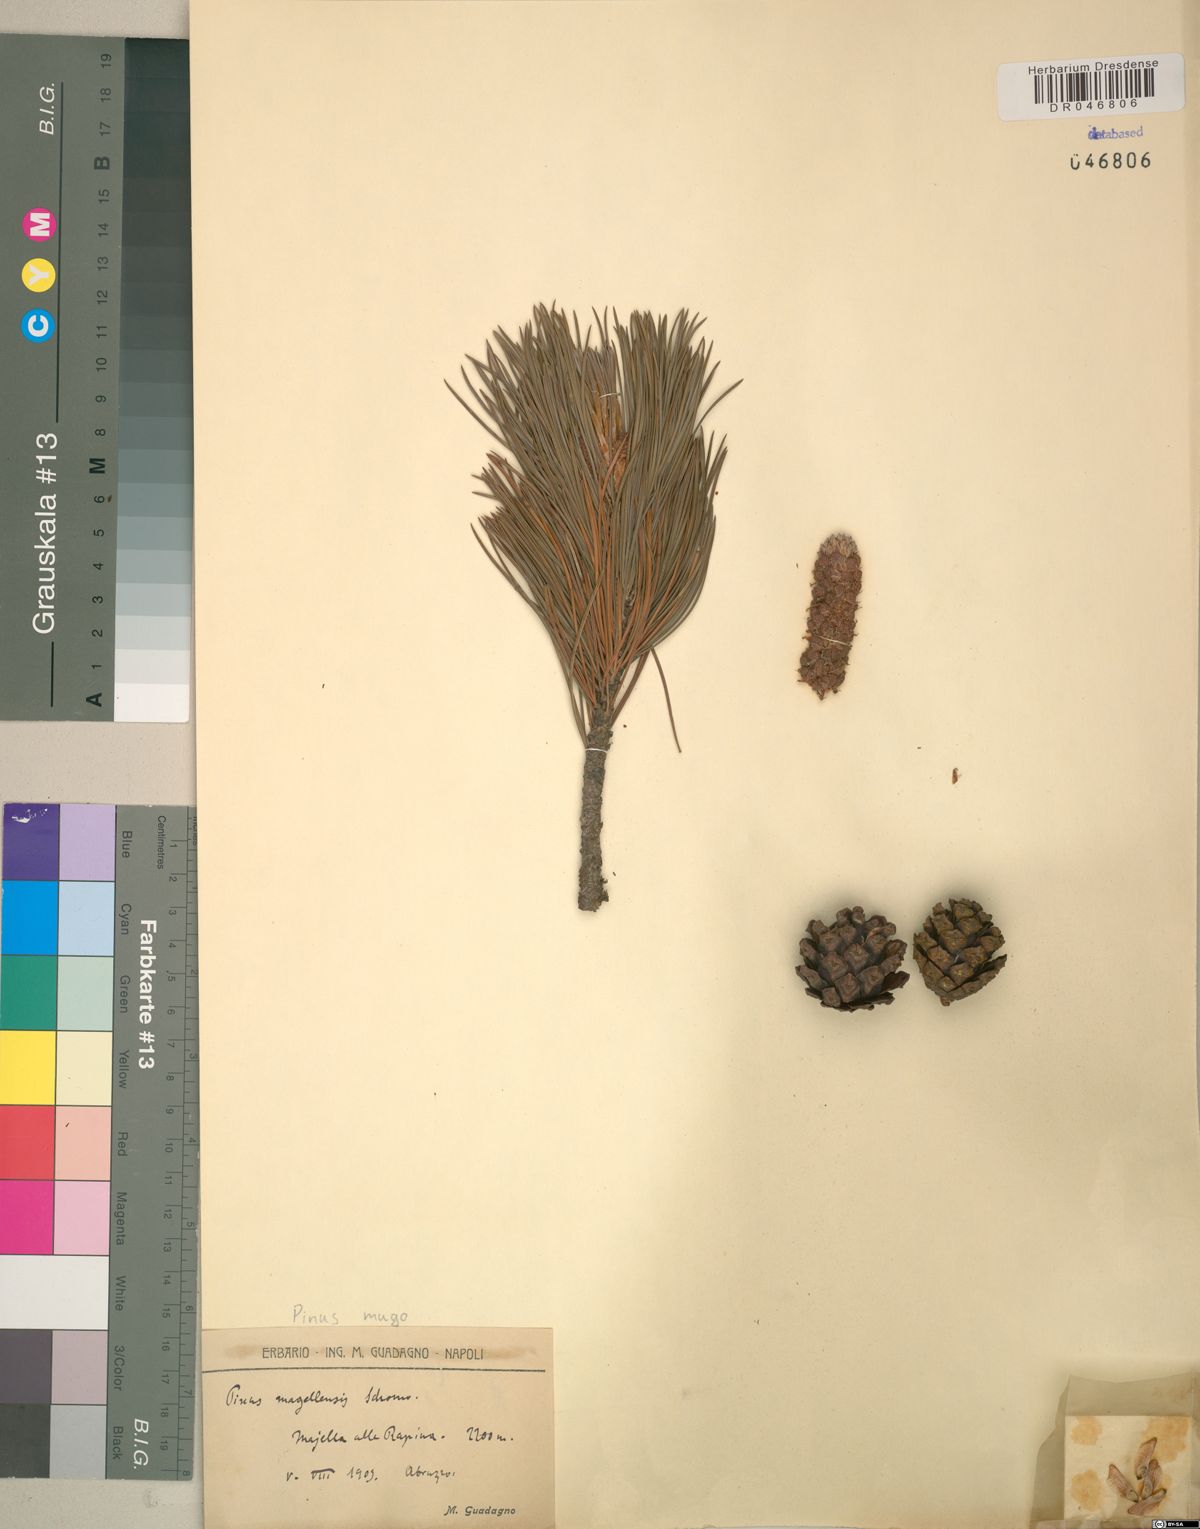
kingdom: Plantae
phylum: Tracheophyta
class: Pinopsida
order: Pinales
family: Pinaceae
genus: Pinus
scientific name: Pinus mugo
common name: Mugo pine
